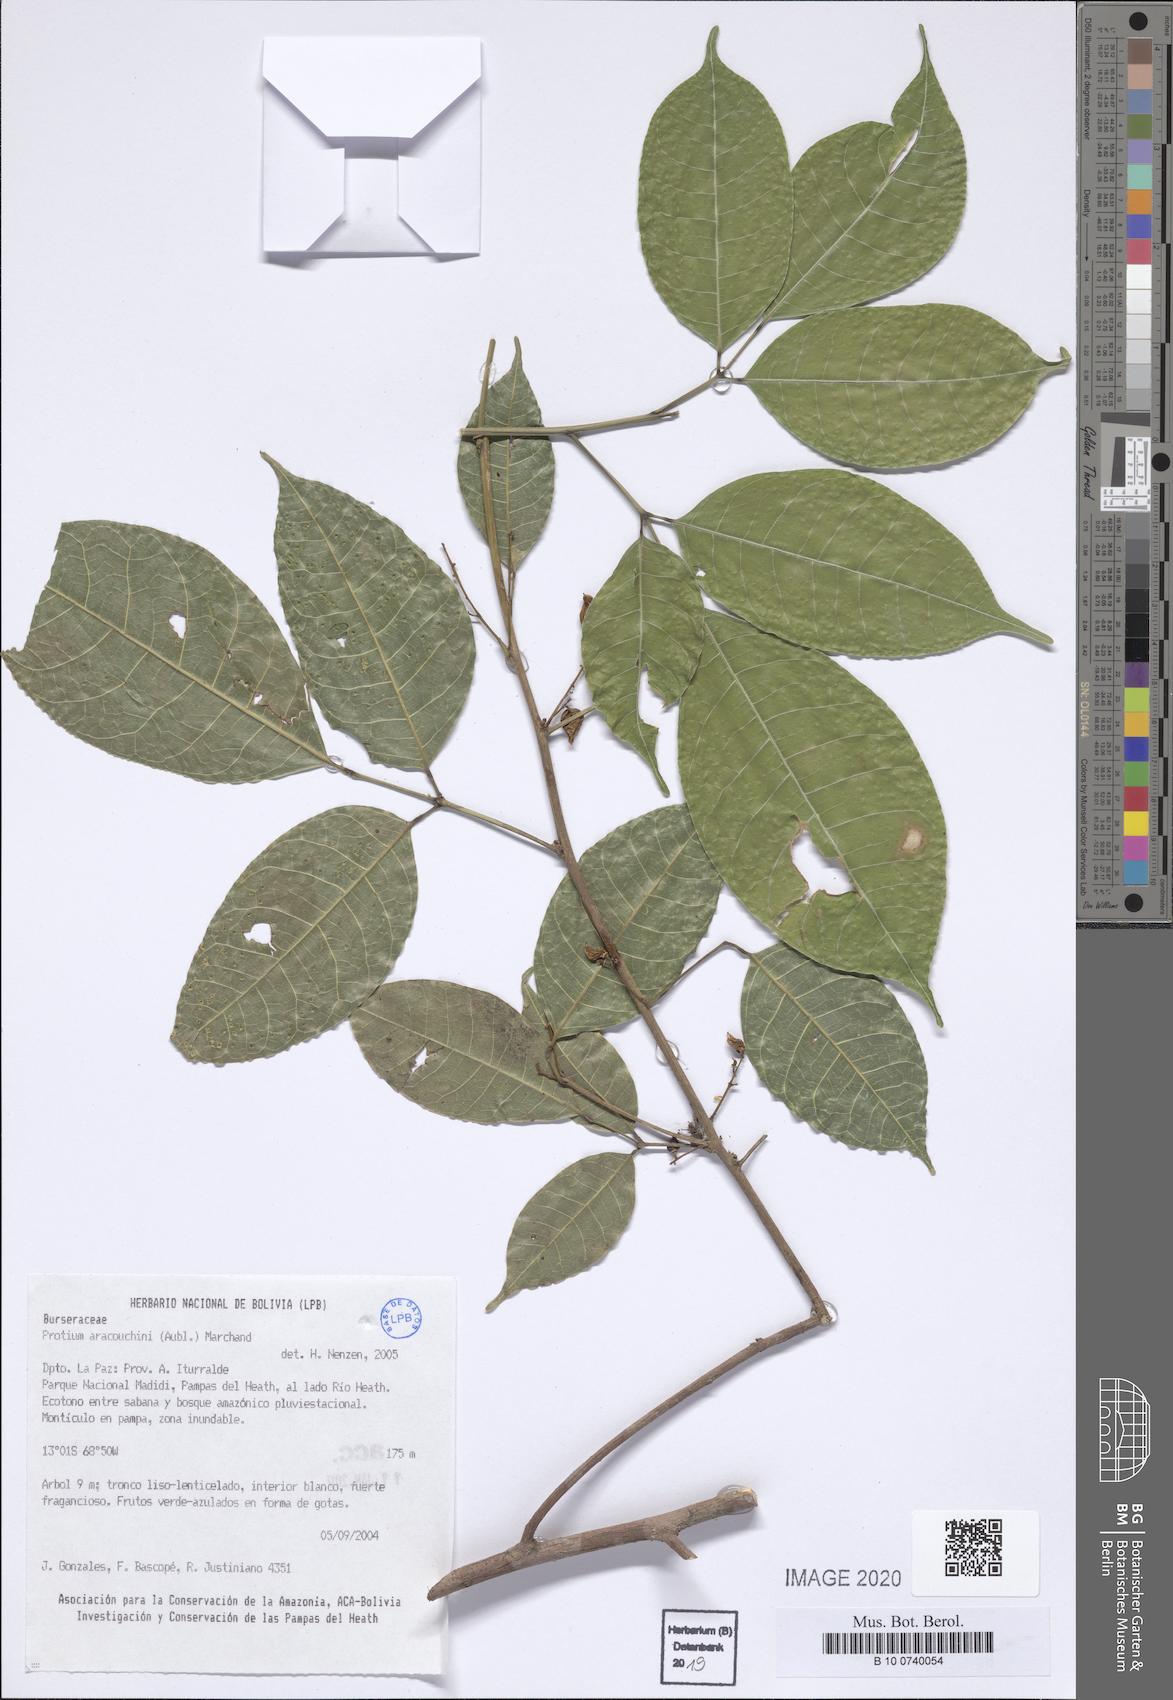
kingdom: Plantae
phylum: Tracheophyta
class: Magnoliopsida
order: Sapindales
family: Burseraceae
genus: Protium
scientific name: Protium aracouchini
